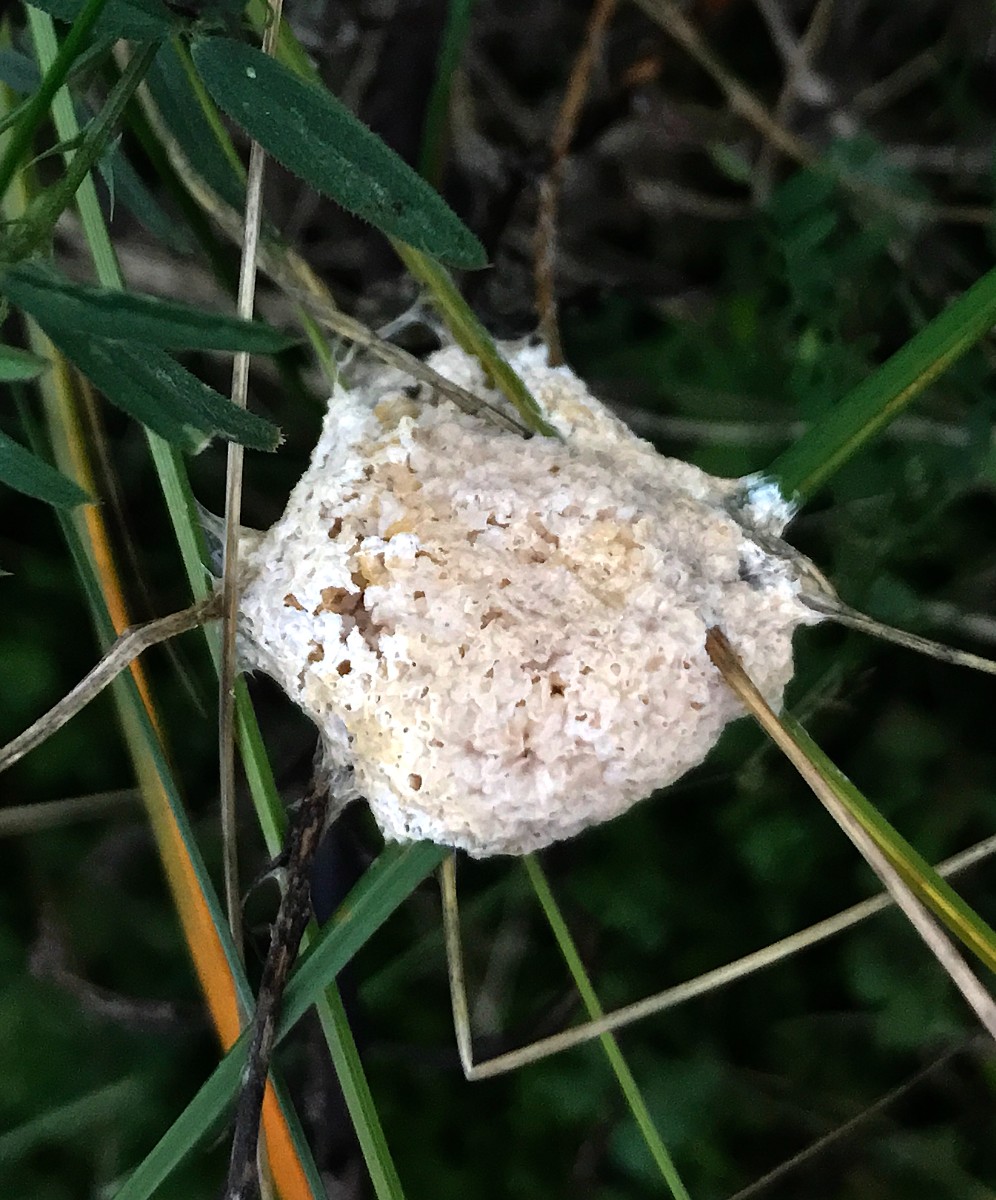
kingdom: Protozoa
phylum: Mycetozoa
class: Myxomycetes
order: Physarales
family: Physaraceae
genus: Didymium
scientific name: Didymium
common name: urteskum
